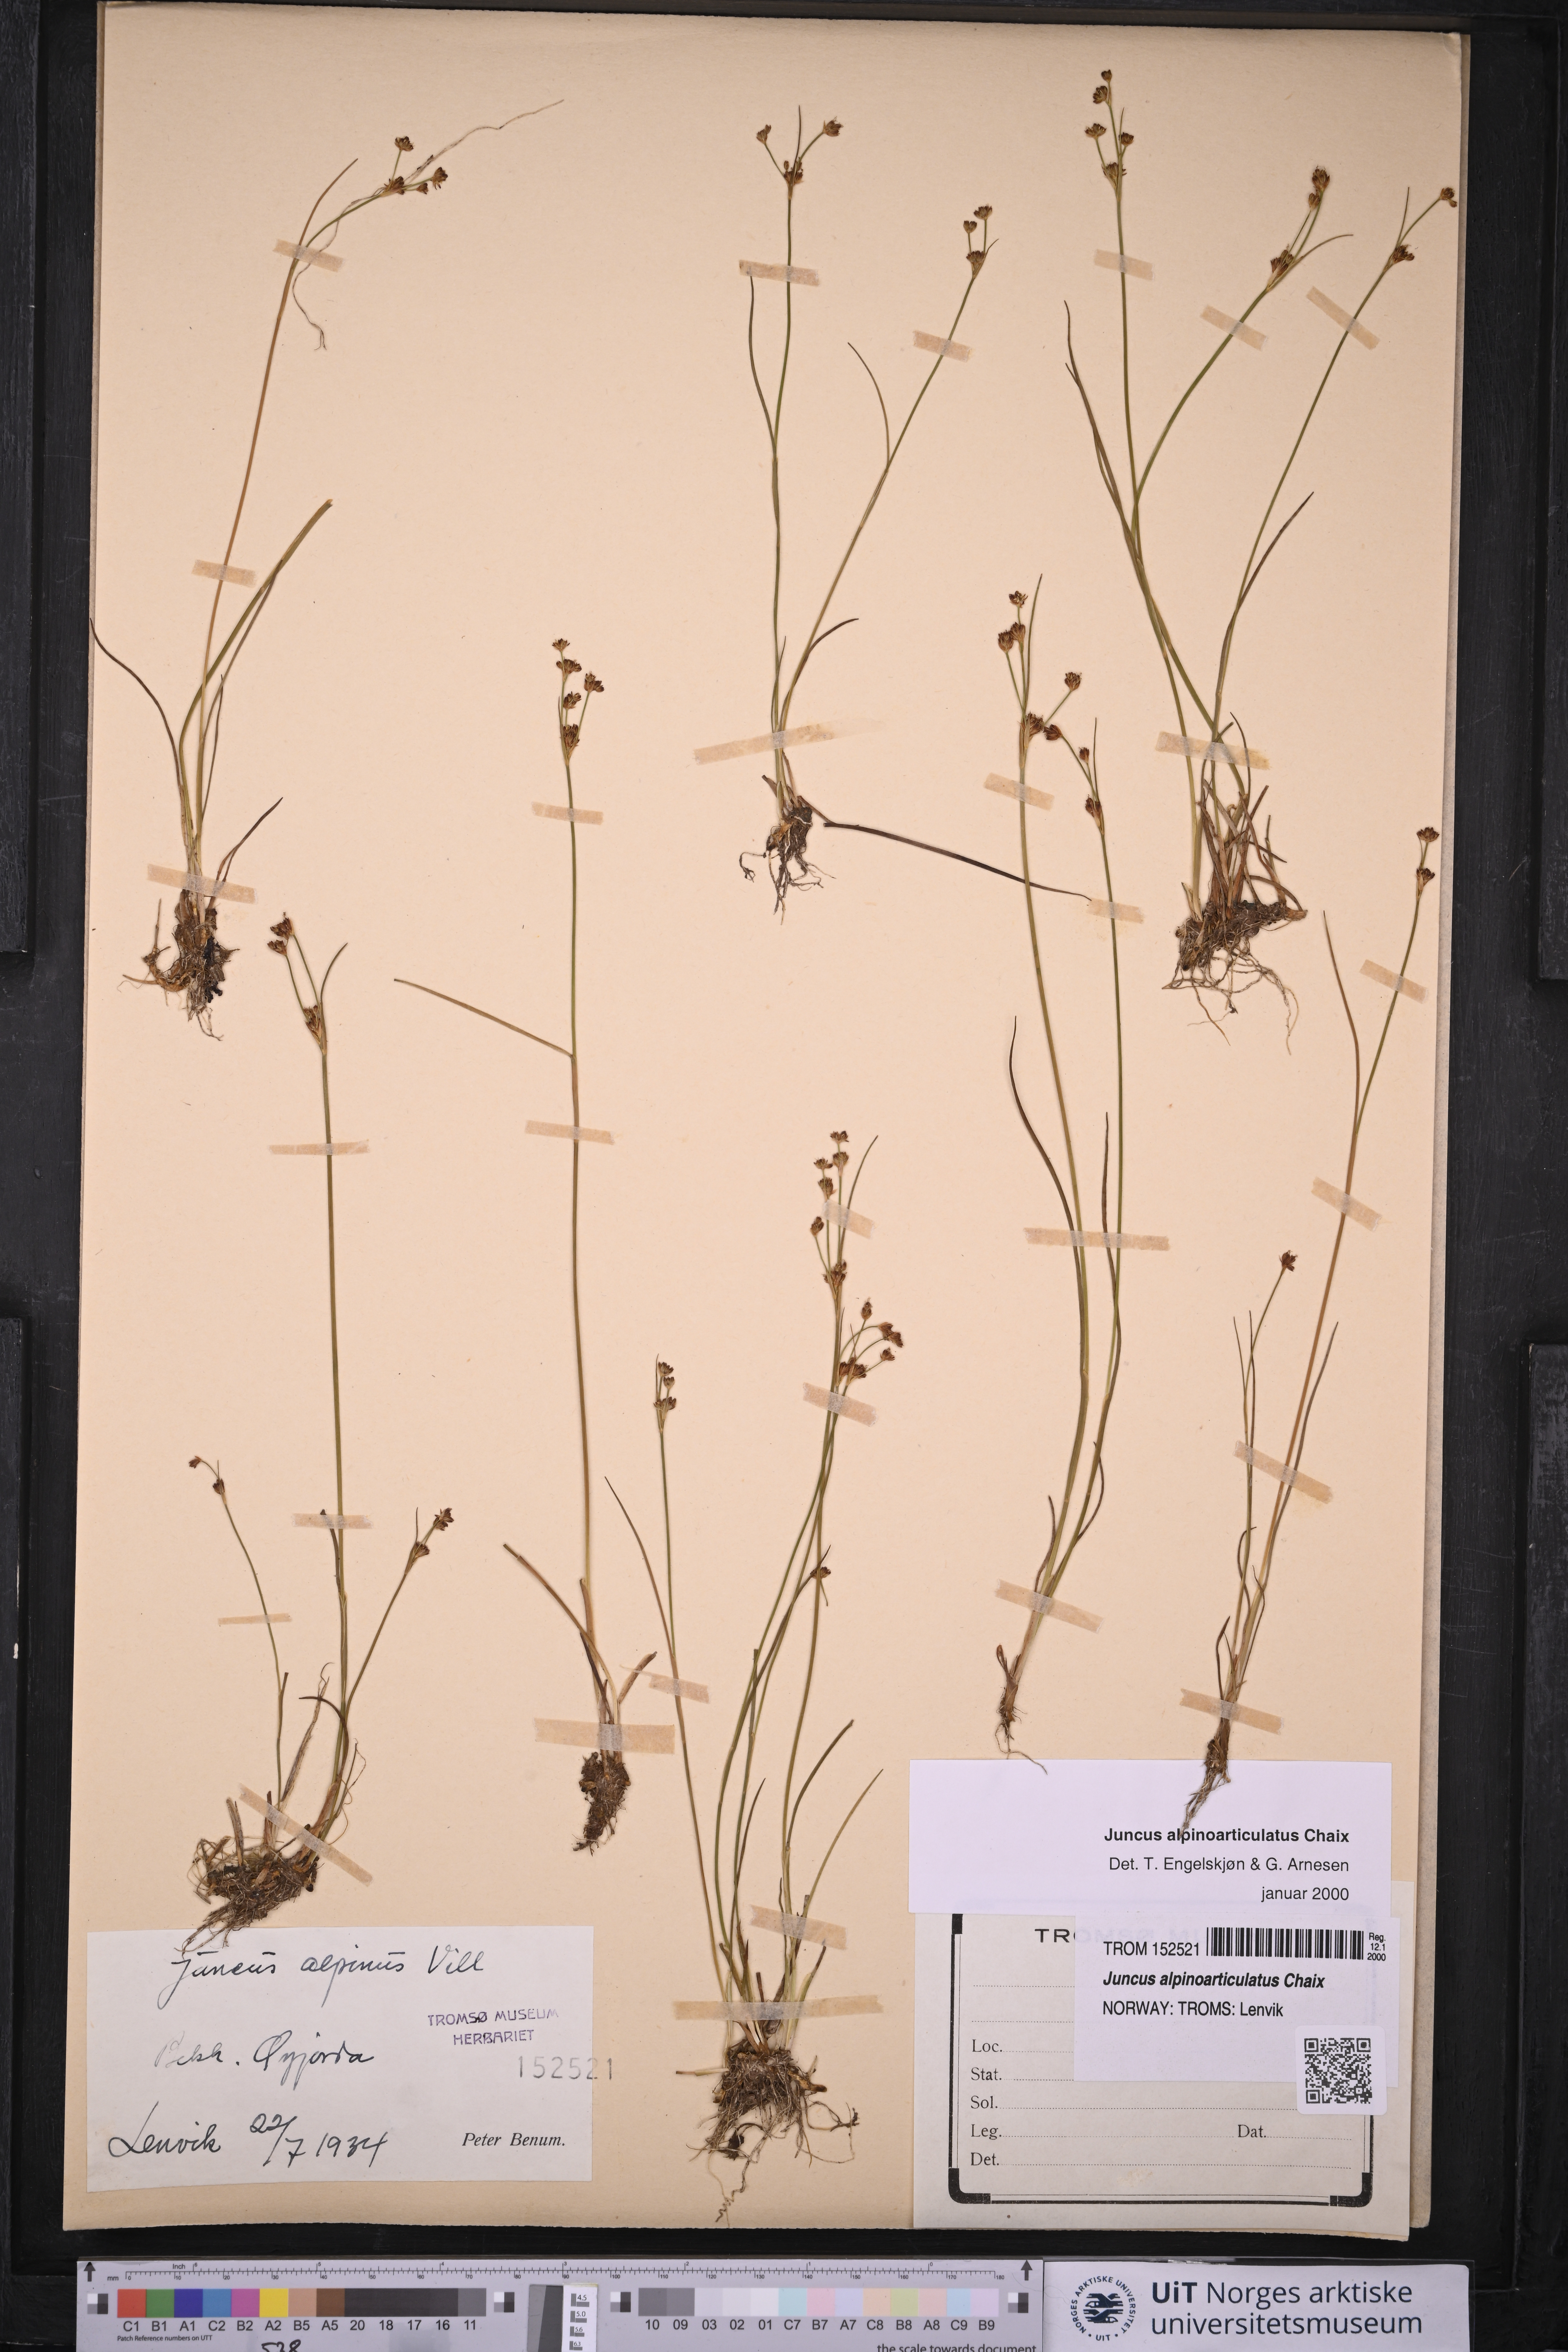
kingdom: Plantae
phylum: Tracheophyta
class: Liliopsida
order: Poales
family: Juncaceae
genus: Juncus
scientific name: Juncus alpinoarticulatus
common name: Alpine rush
